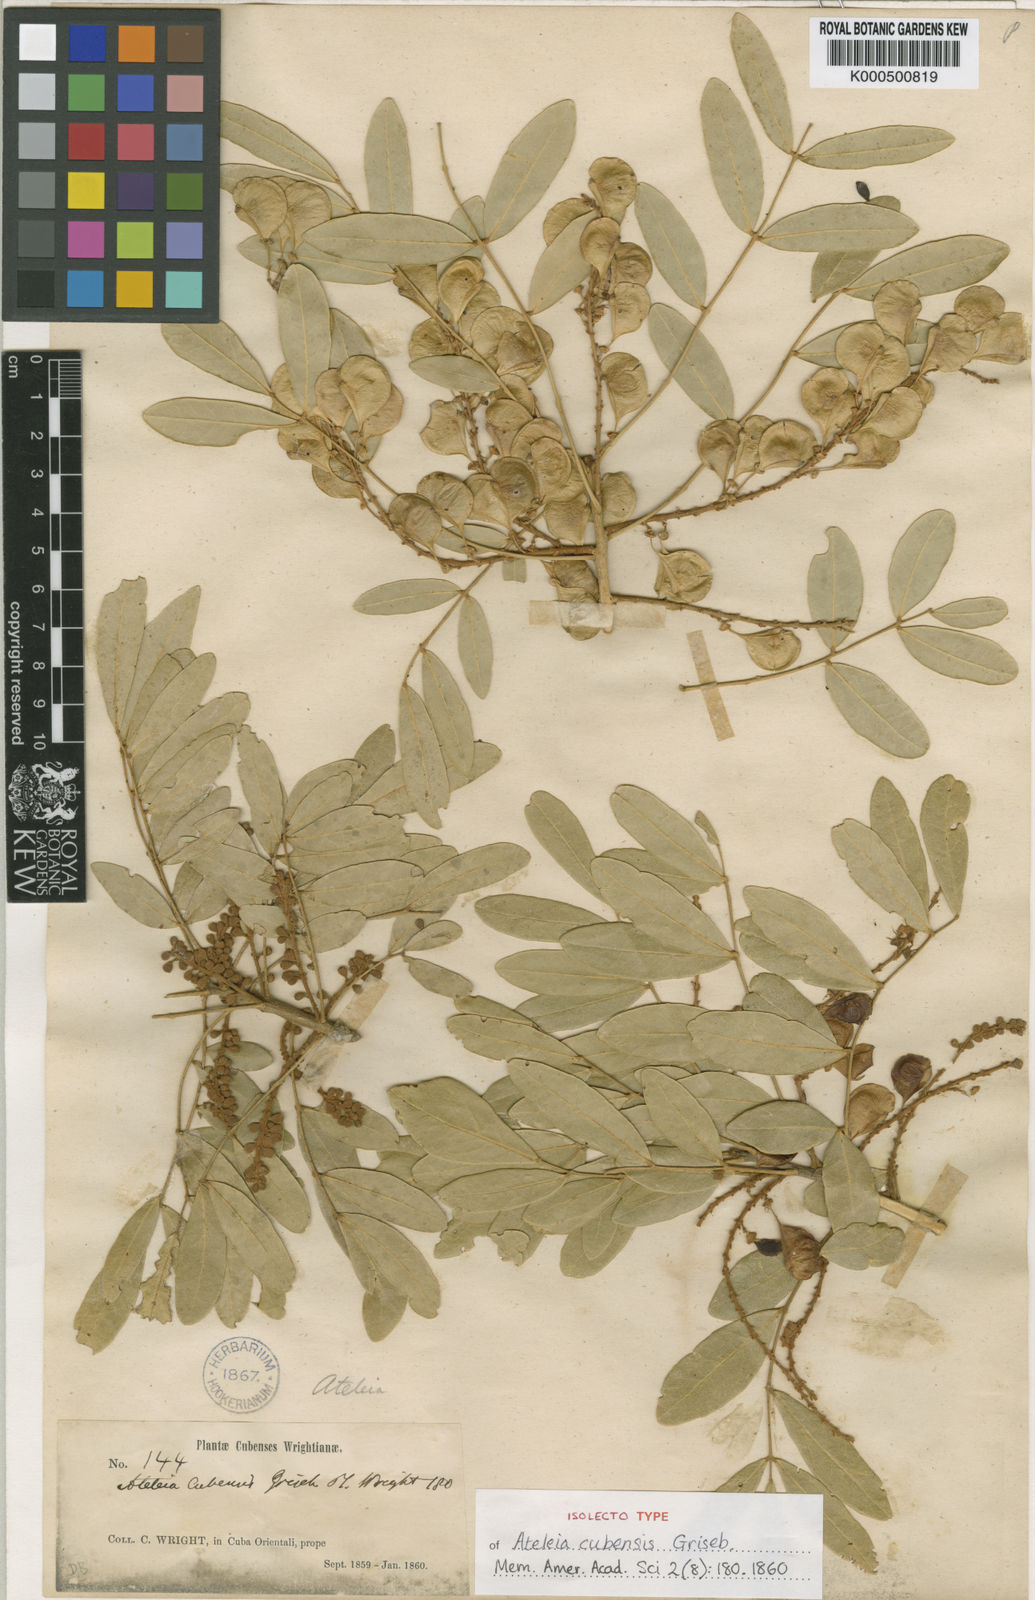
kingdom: Plantae
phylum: Tracheophyta
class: Magnoliopsida
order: Fabales
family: Fabaceae
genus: Ateleia
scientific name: Ateleia cubensis
